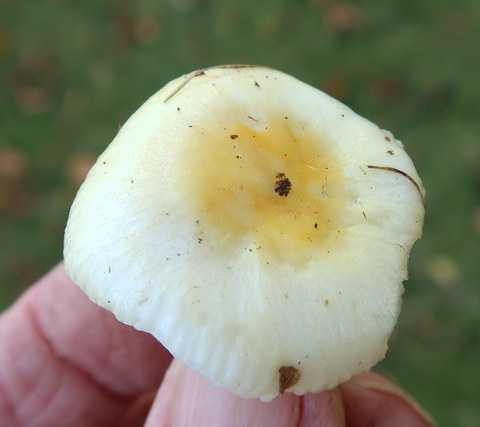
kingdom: Fungi
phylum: Basidiomycota
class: Agaricomycetes
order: Russulales
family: Russulaceae
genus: Russula
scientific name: Russula solaris
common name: sol-skørhat
